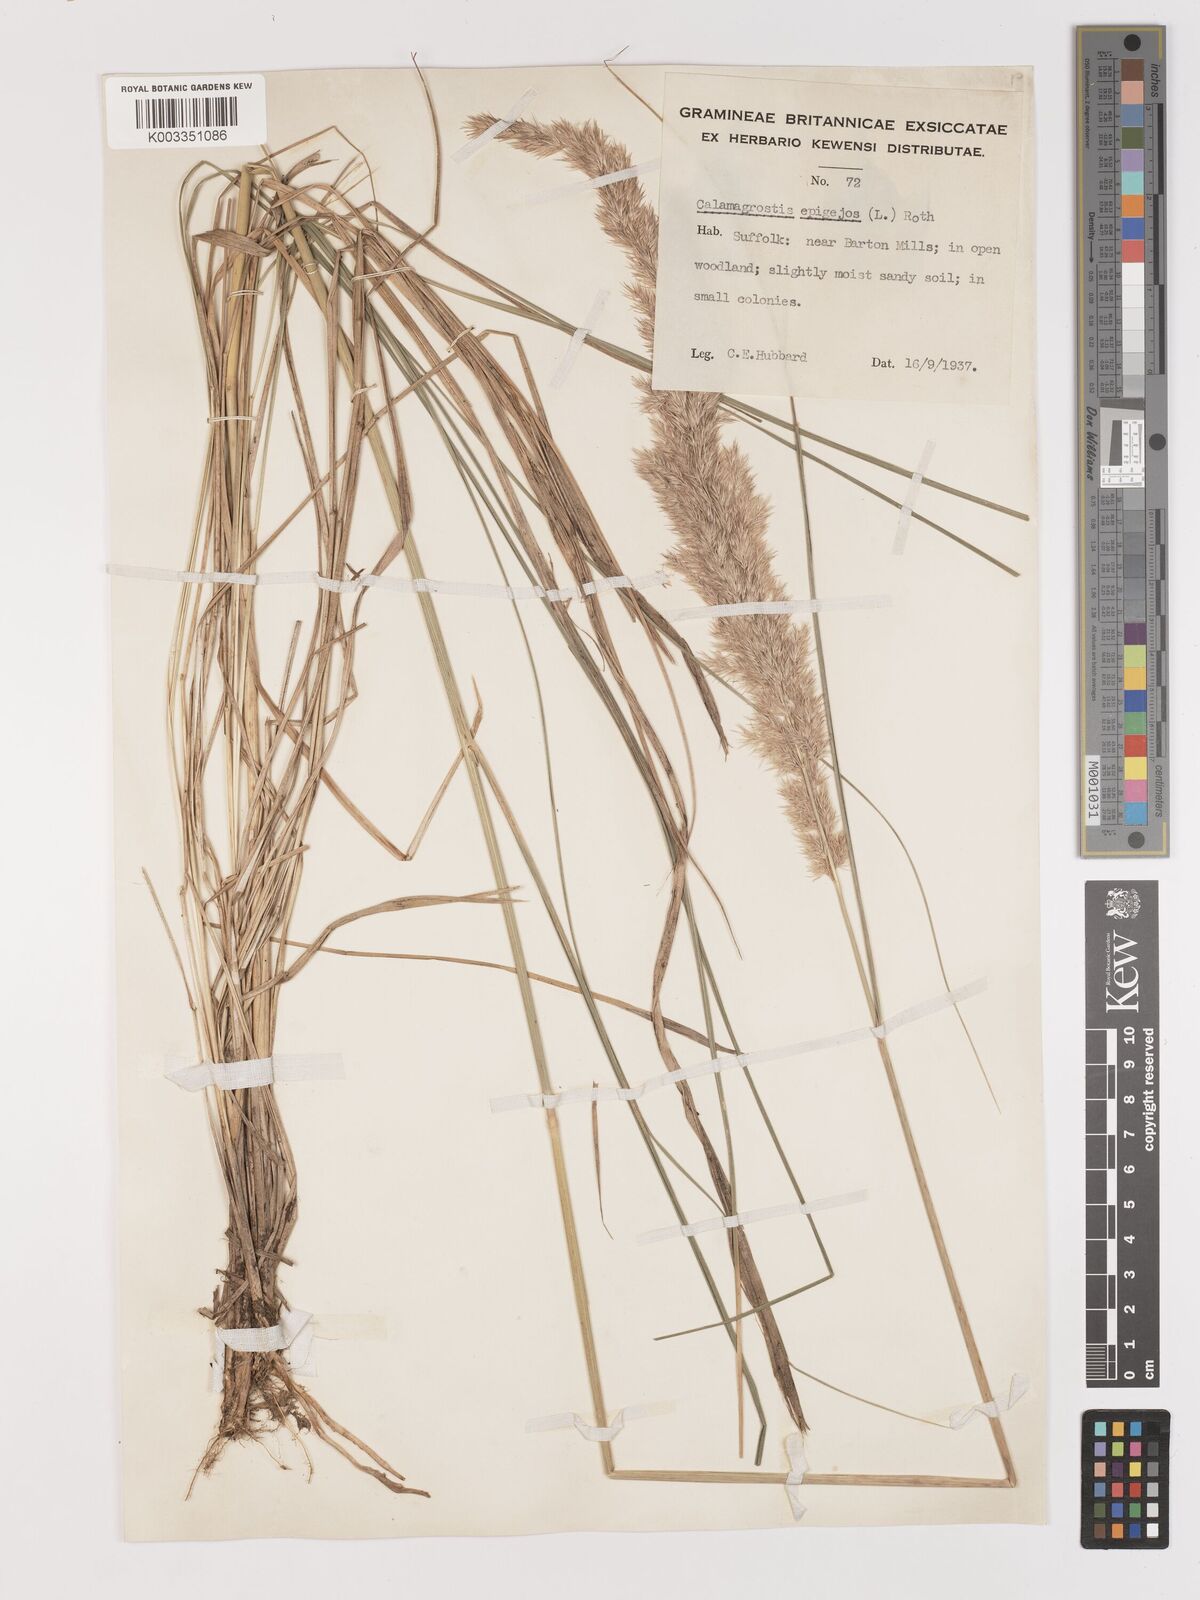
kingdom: Plantae
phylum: Tracheophyta
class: Liliopsida
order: Poales
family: Poaceae
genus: Calamagrostis
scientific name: Calamagrostis
